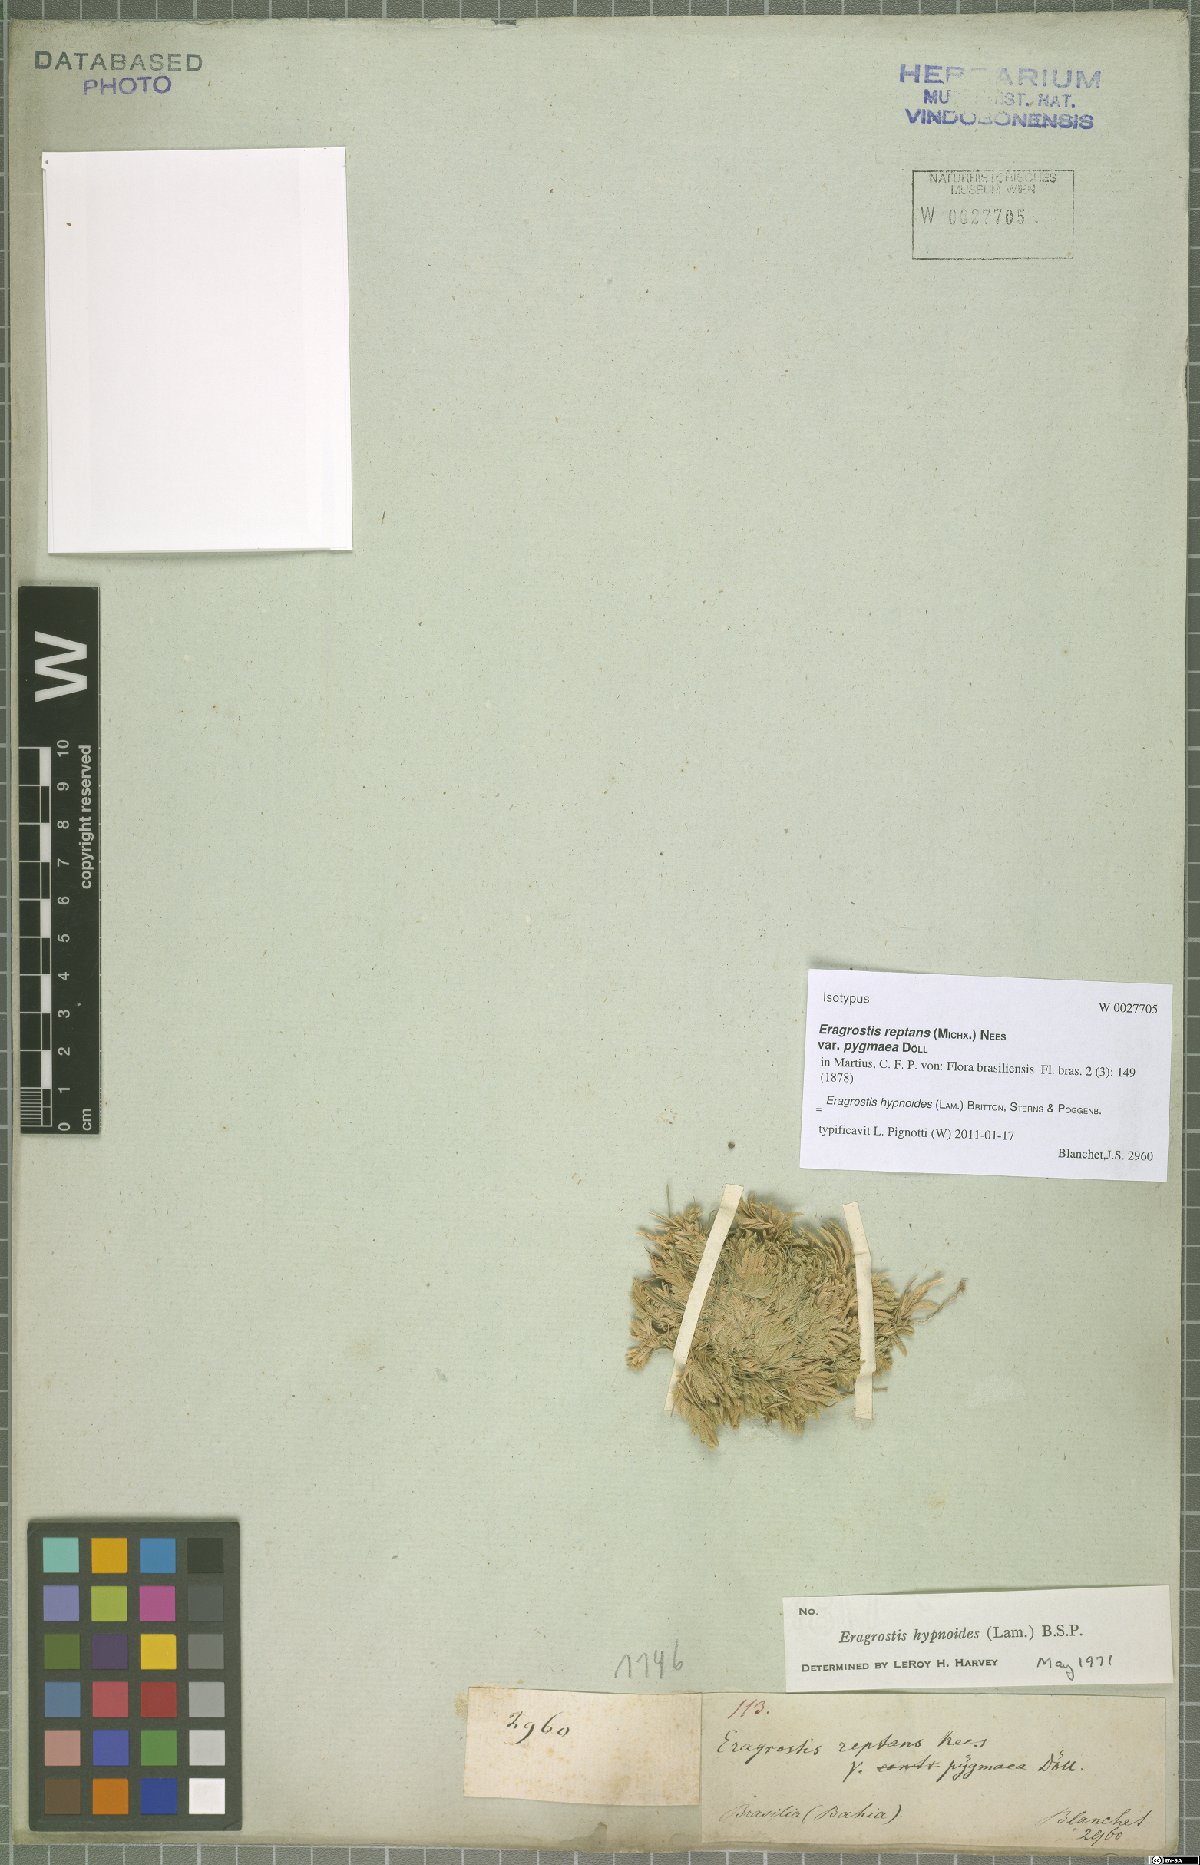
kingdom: Plantae
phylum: Tracheophyta
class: Liliopsida
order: Poales
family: Poaceae
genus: Eragrostis
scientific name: Eragrostis hypnoides
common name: Creeping love grass
